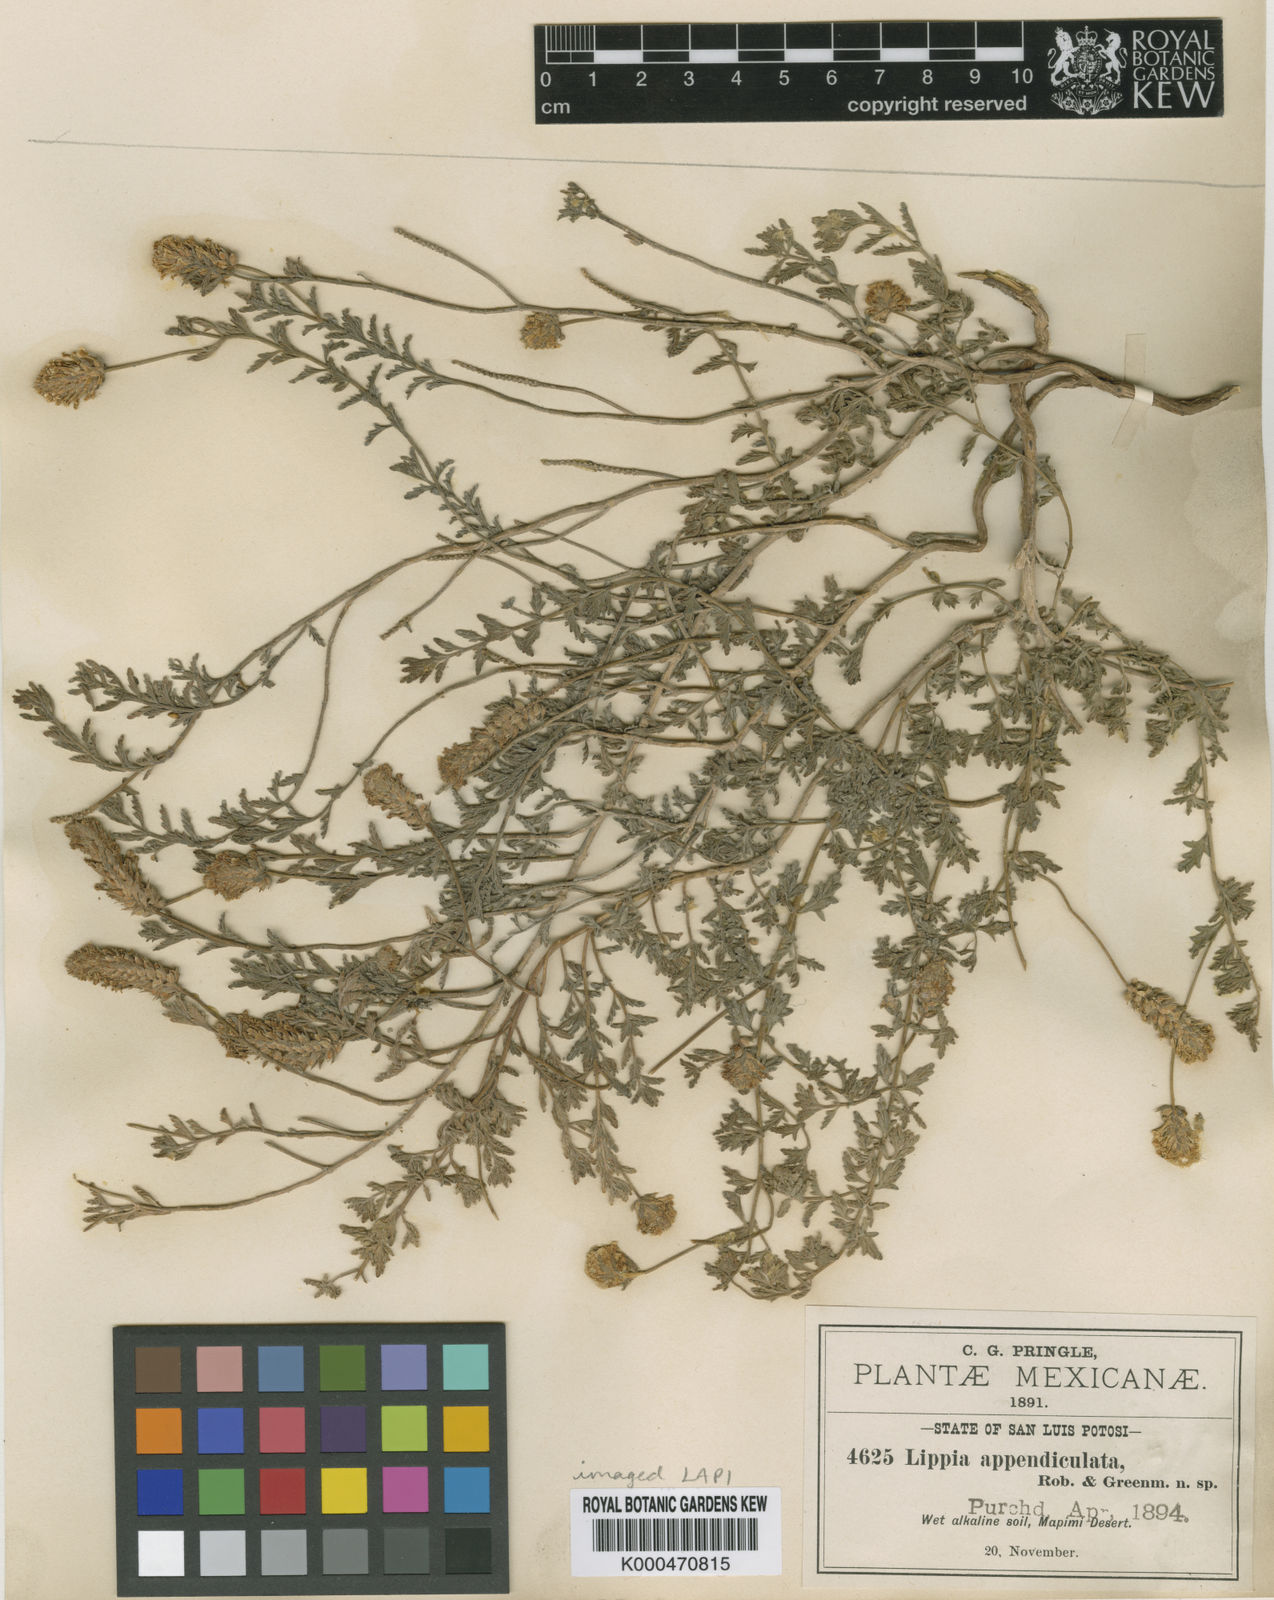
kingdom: Plantae
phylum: Tracheophyta
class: Magnoliopsida
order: Lamiales
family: Verbenaceae
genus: Lippia
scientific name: Lippia appendiculata
